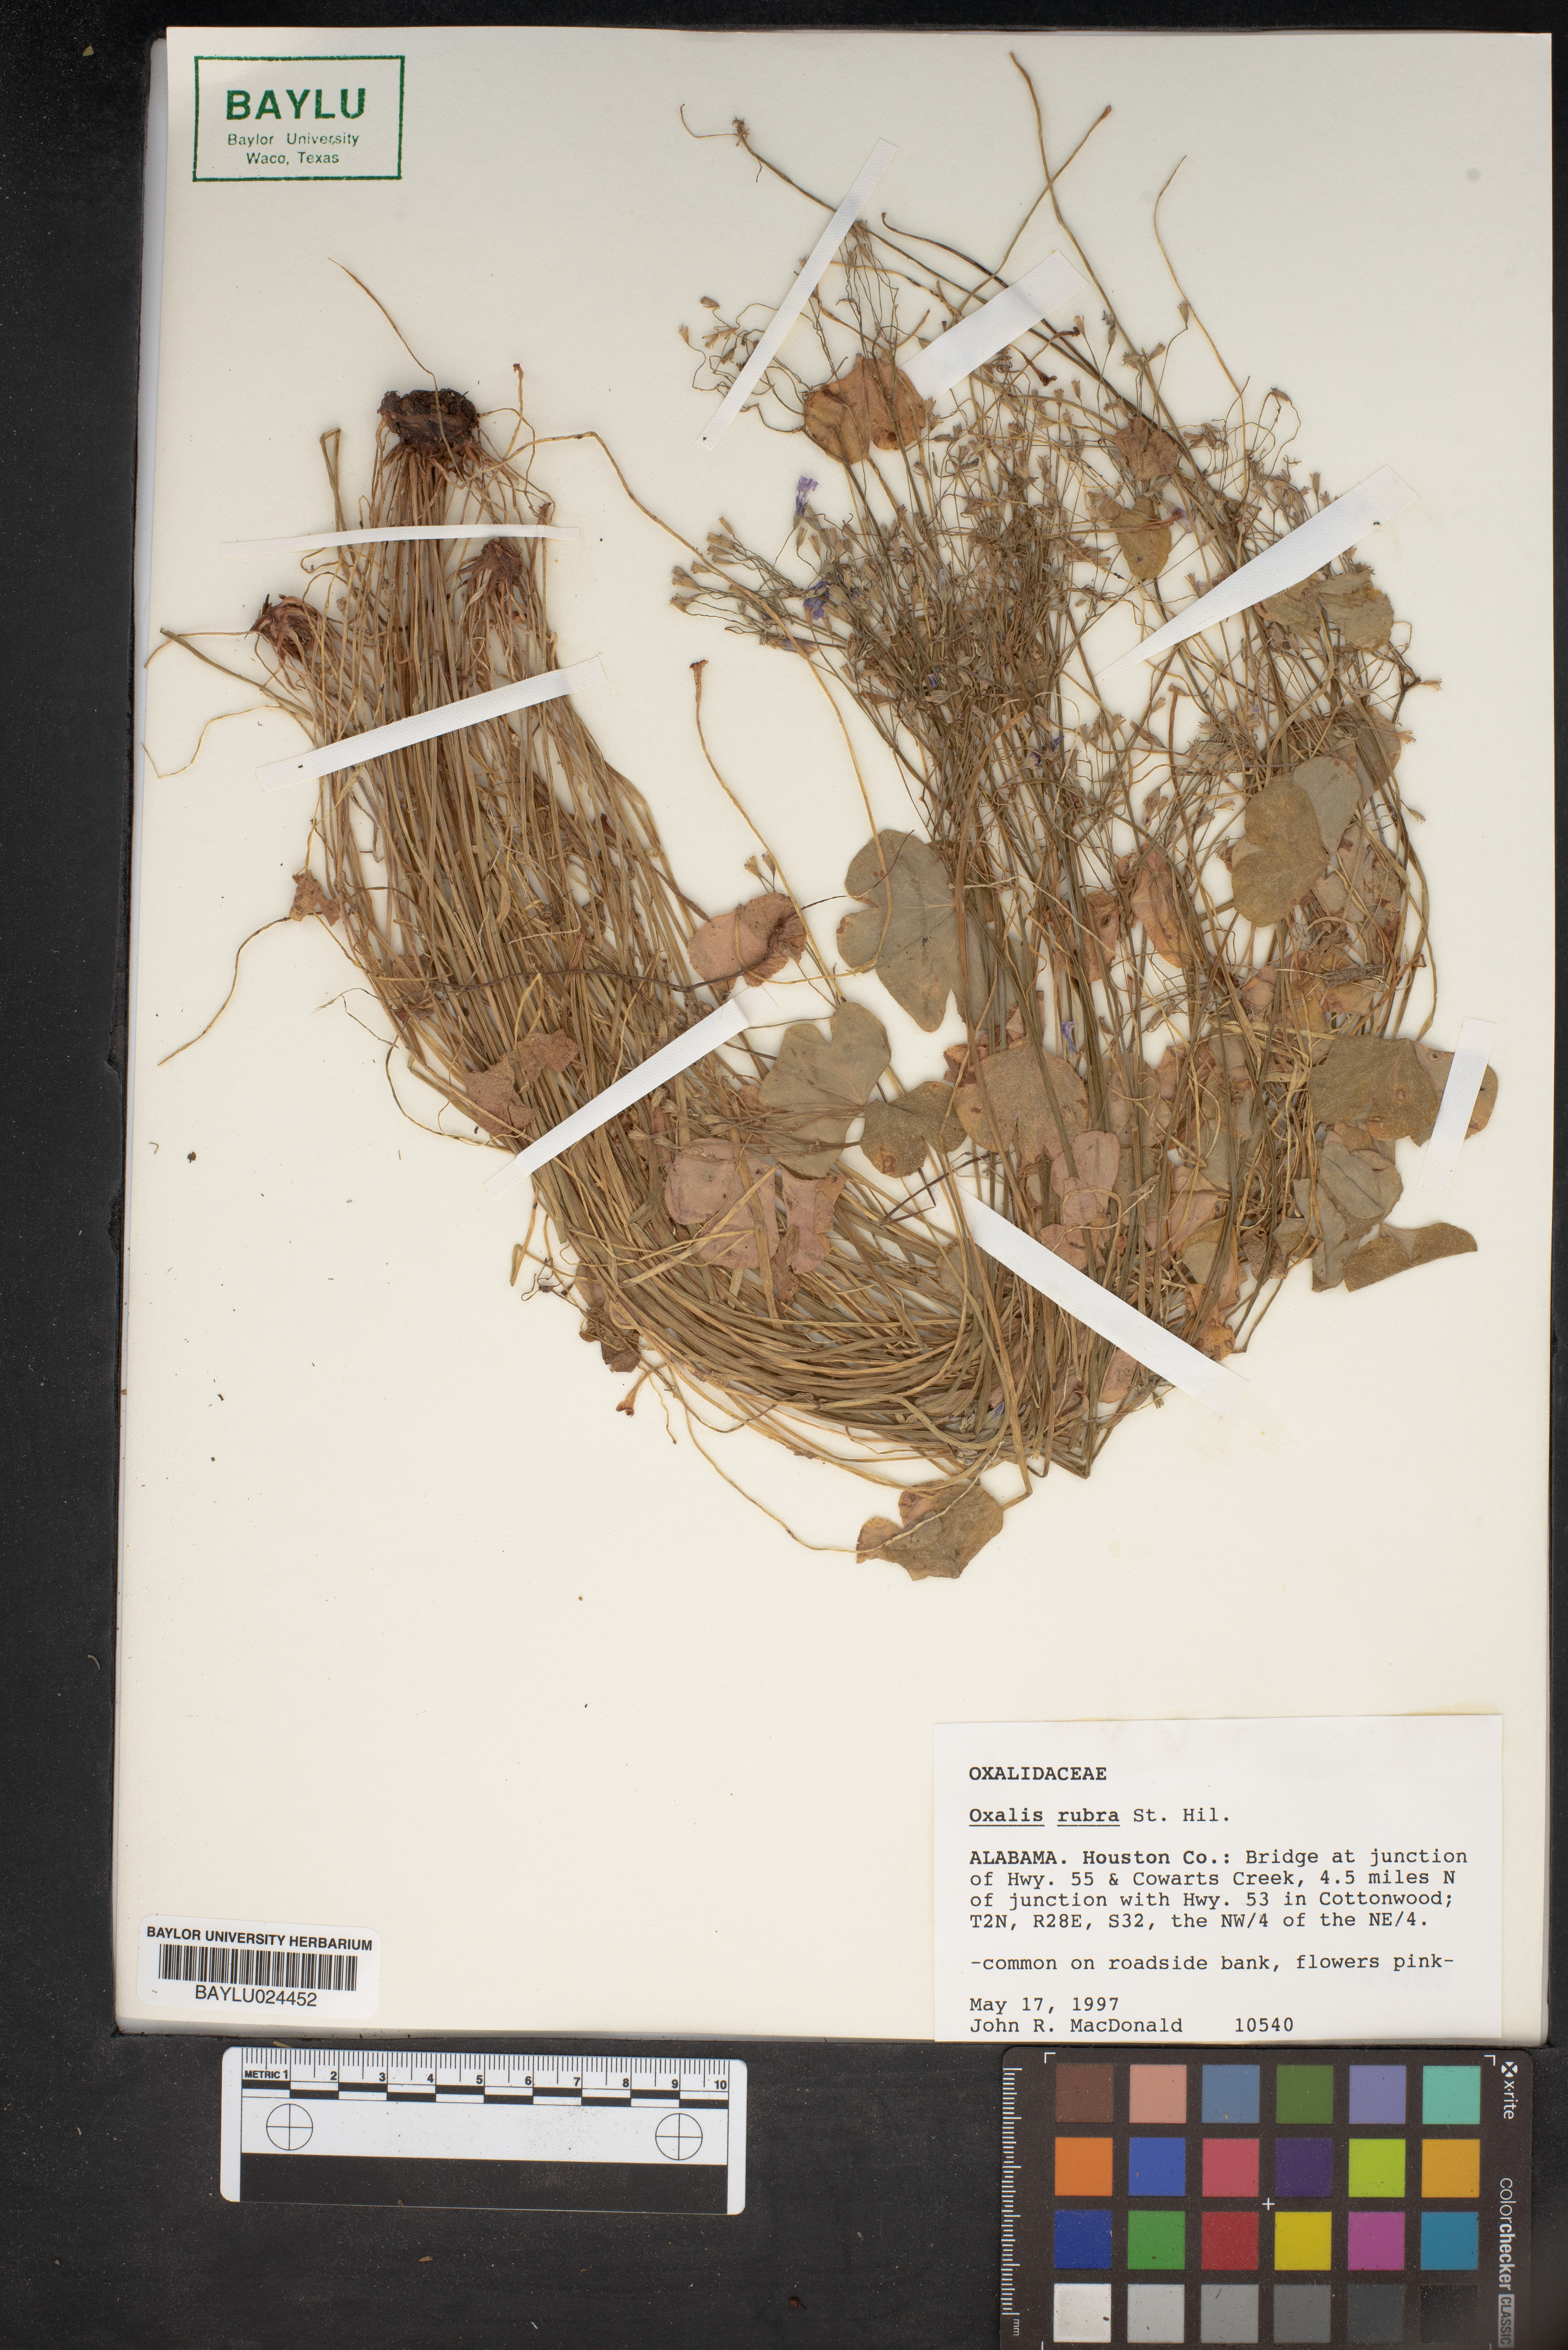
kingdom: Plantae
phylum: Tracheophyta
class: Magnoliopsida
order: Oxalidales
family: Oxalidaceae
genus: Oxalis
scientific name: Oxalis articulata
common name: Pink-sorrel
